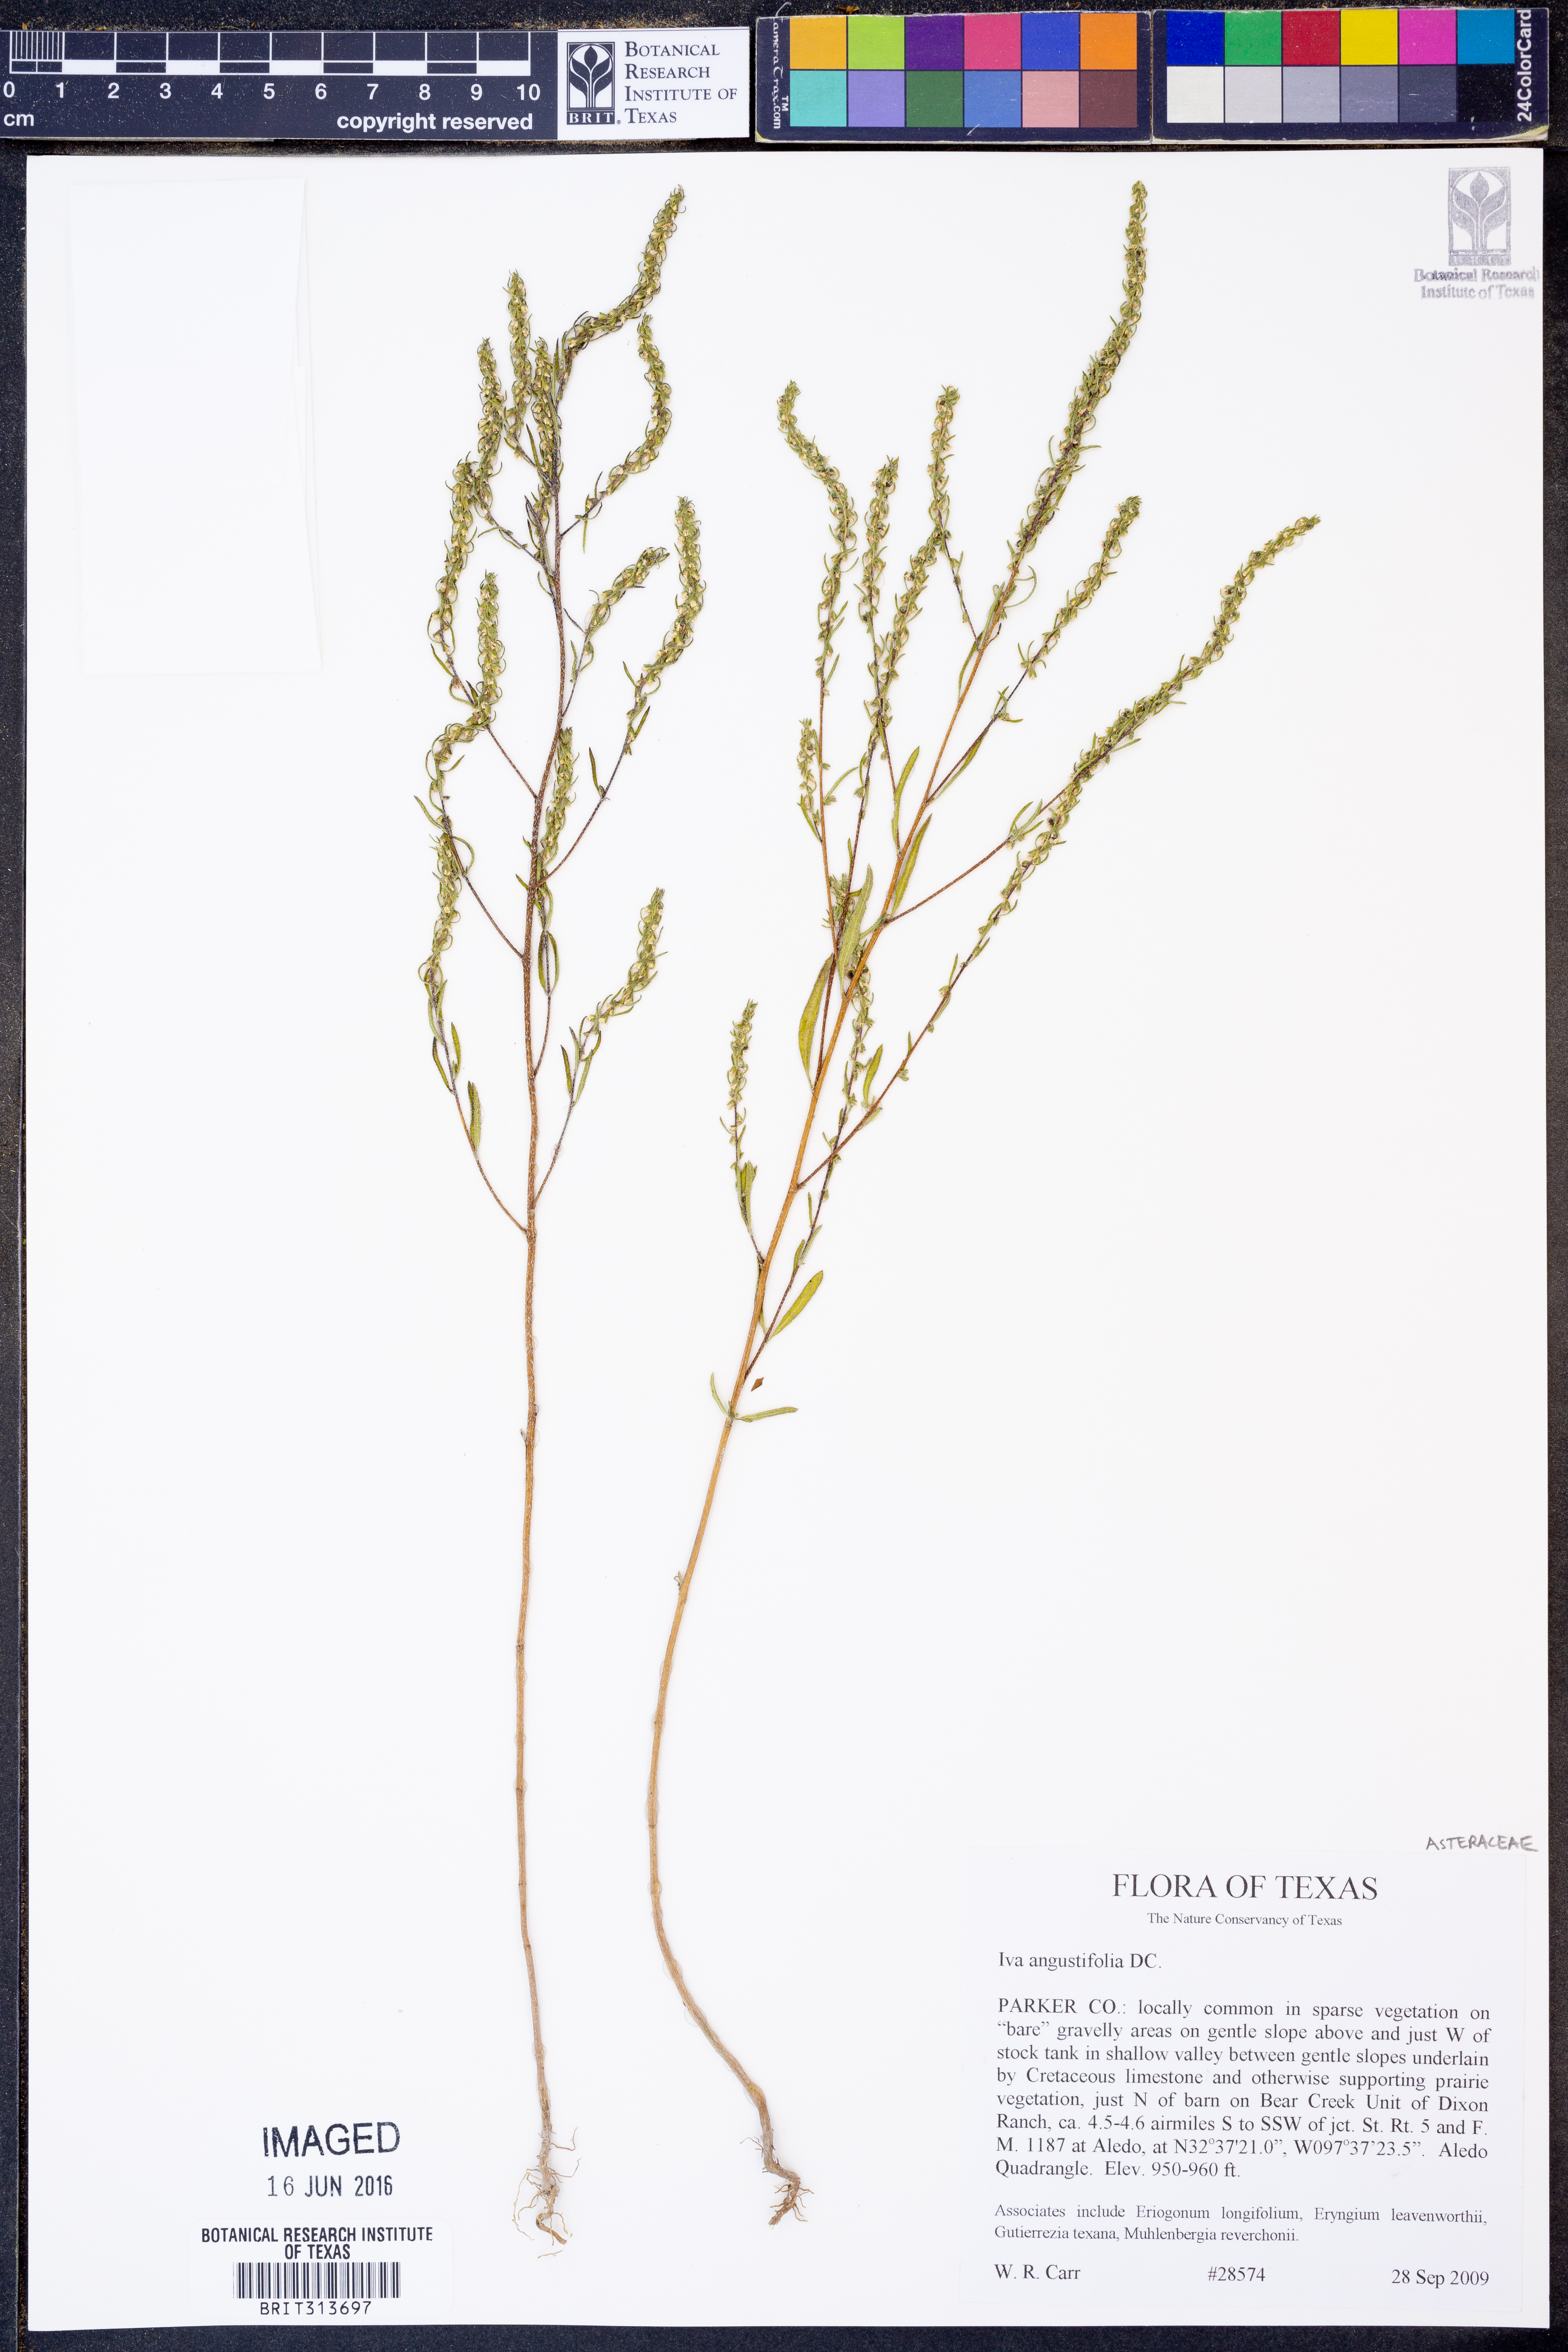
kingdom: Plantae
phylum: Tracheophyta
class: Magnoliopsida
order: Asterales
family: Asteraceae
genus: Iva
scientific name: Iva asperifolia
